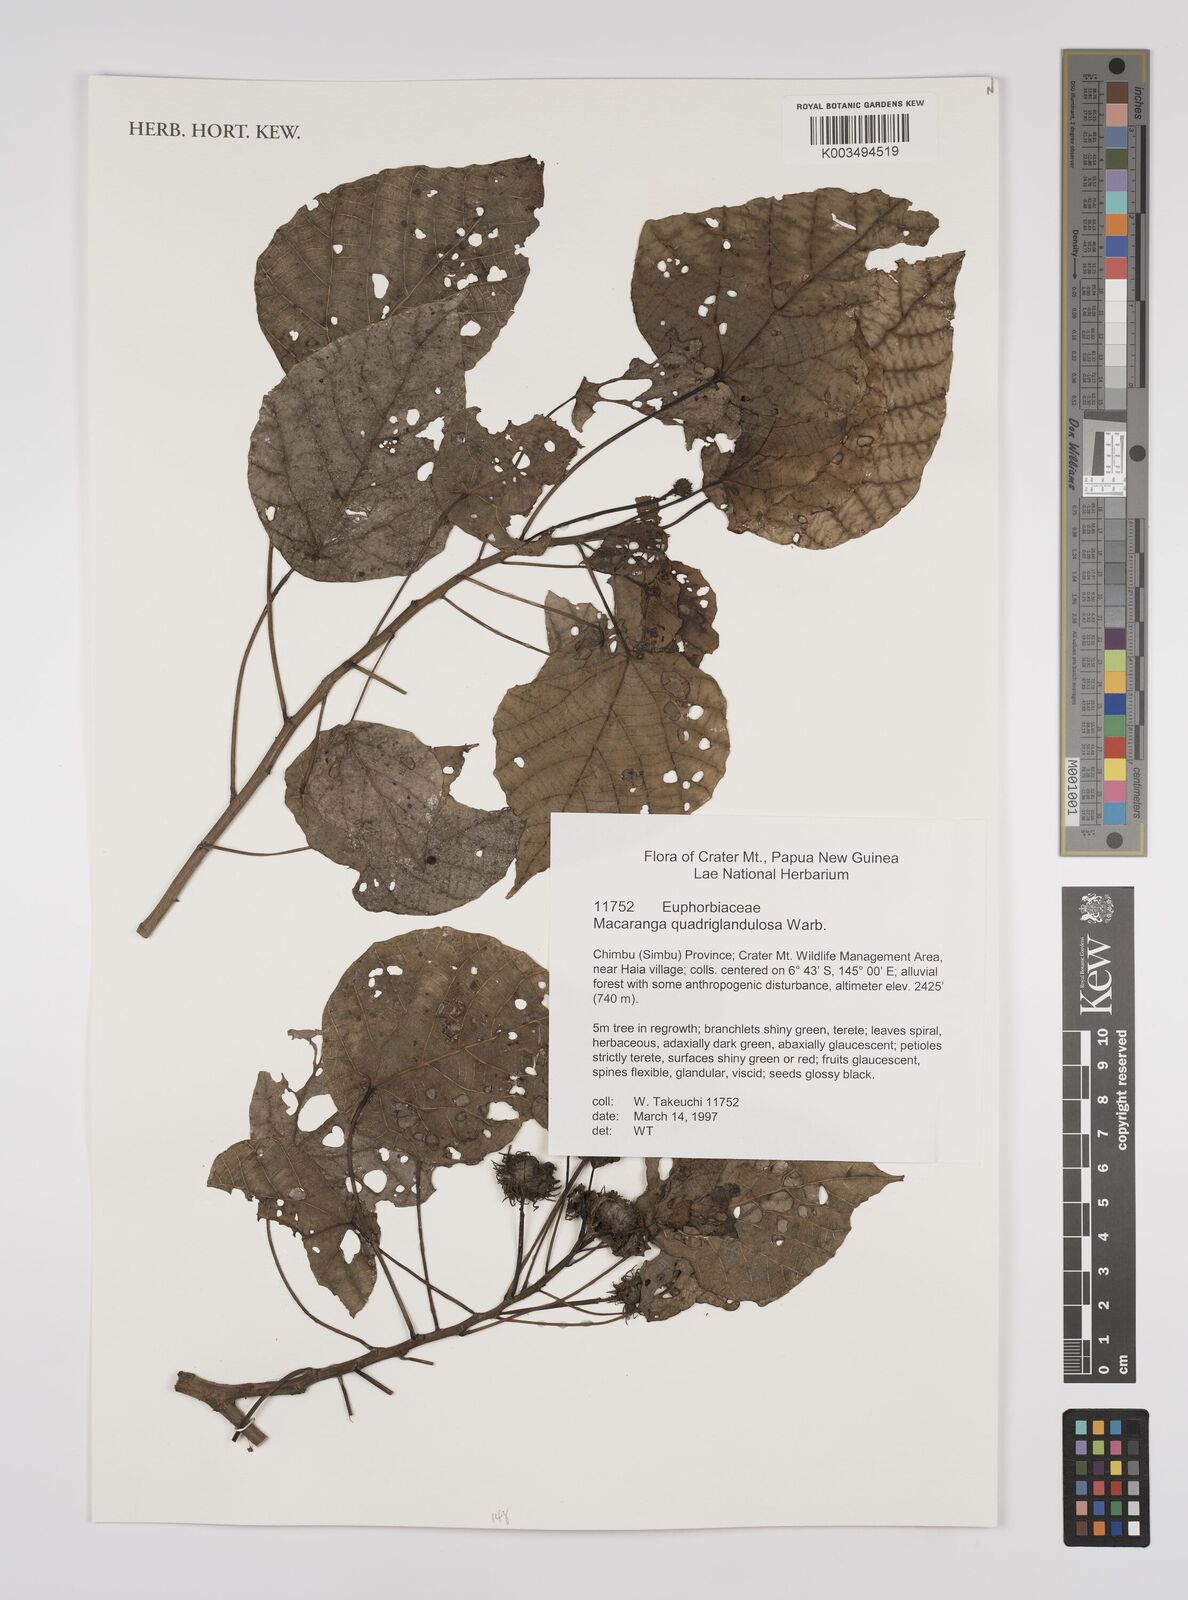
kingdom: Plantae
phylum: Tracheophyta
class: Magnoliopsida
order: Malpighiales
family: Euphorbiaceae
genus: Macaranga
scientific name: Macaranga quadriglandulosa
